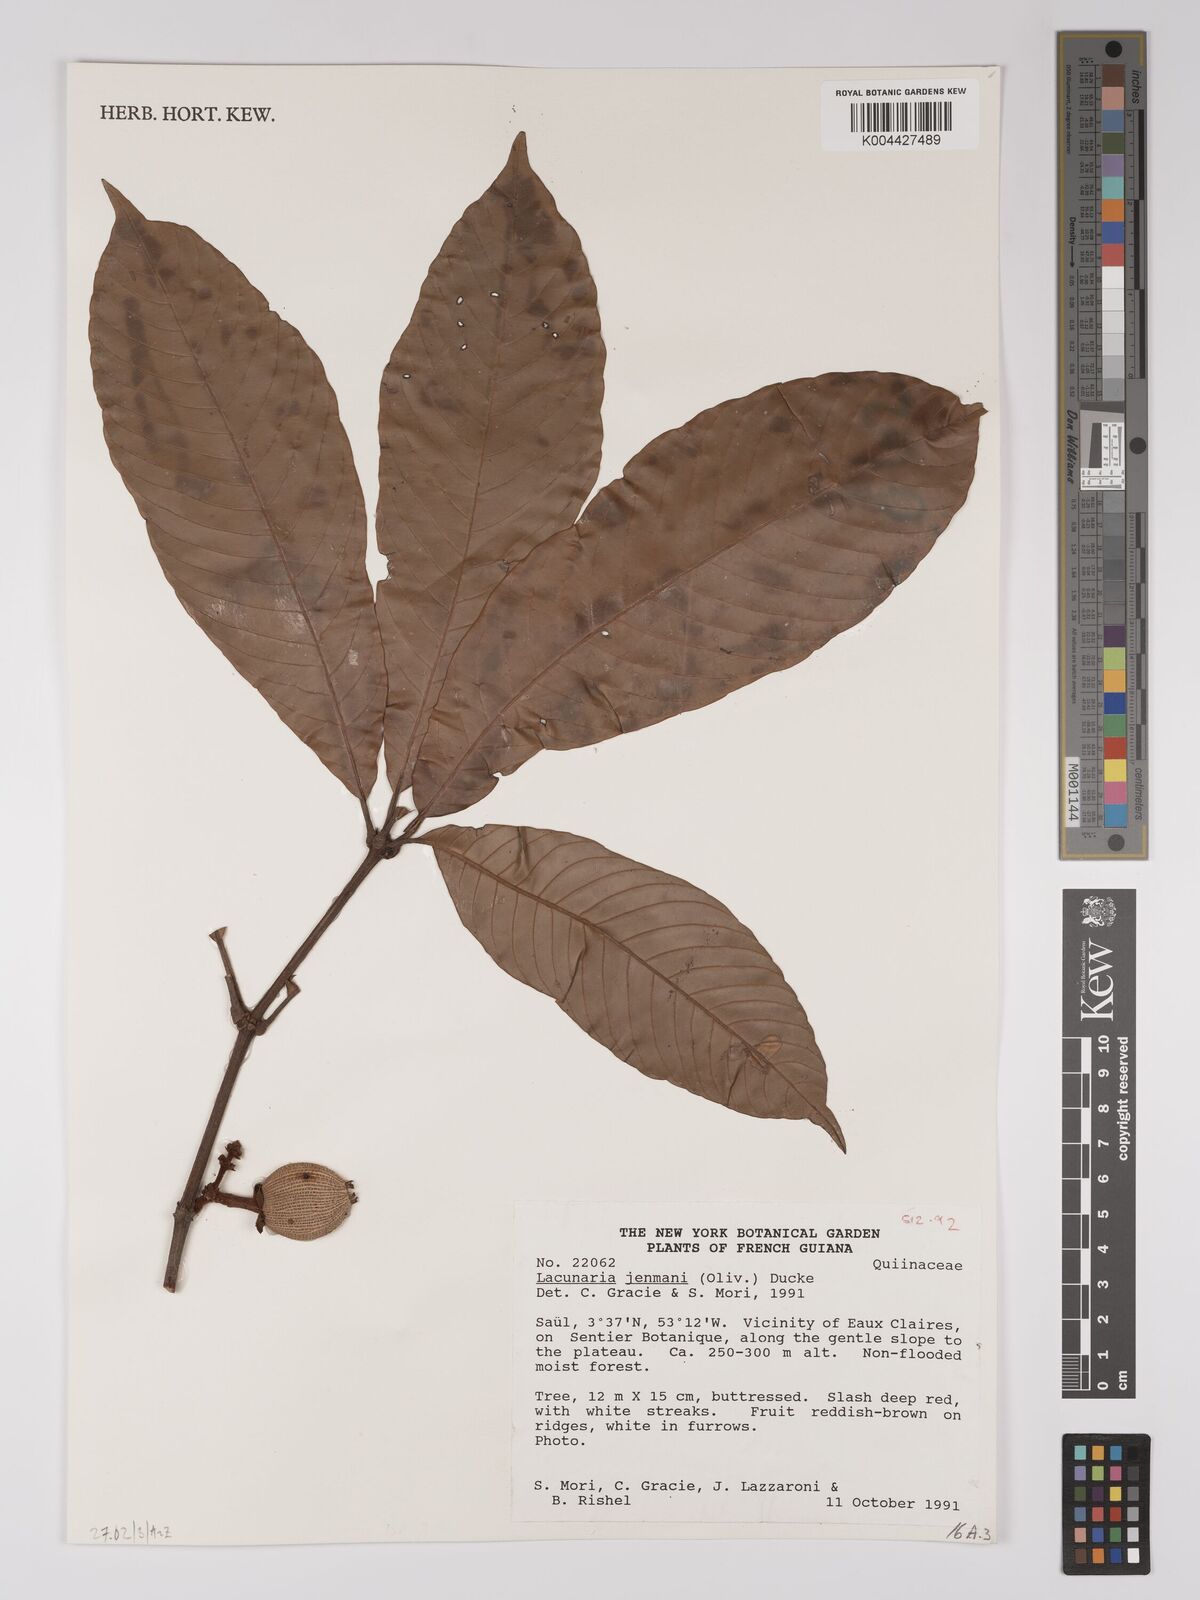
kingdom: Plantae
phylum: Tracheophyta
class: Magnoliopsida
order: Malpighiales
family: Quiinaceae
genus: Lacunaria
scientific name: Lacunaria jenmanii
